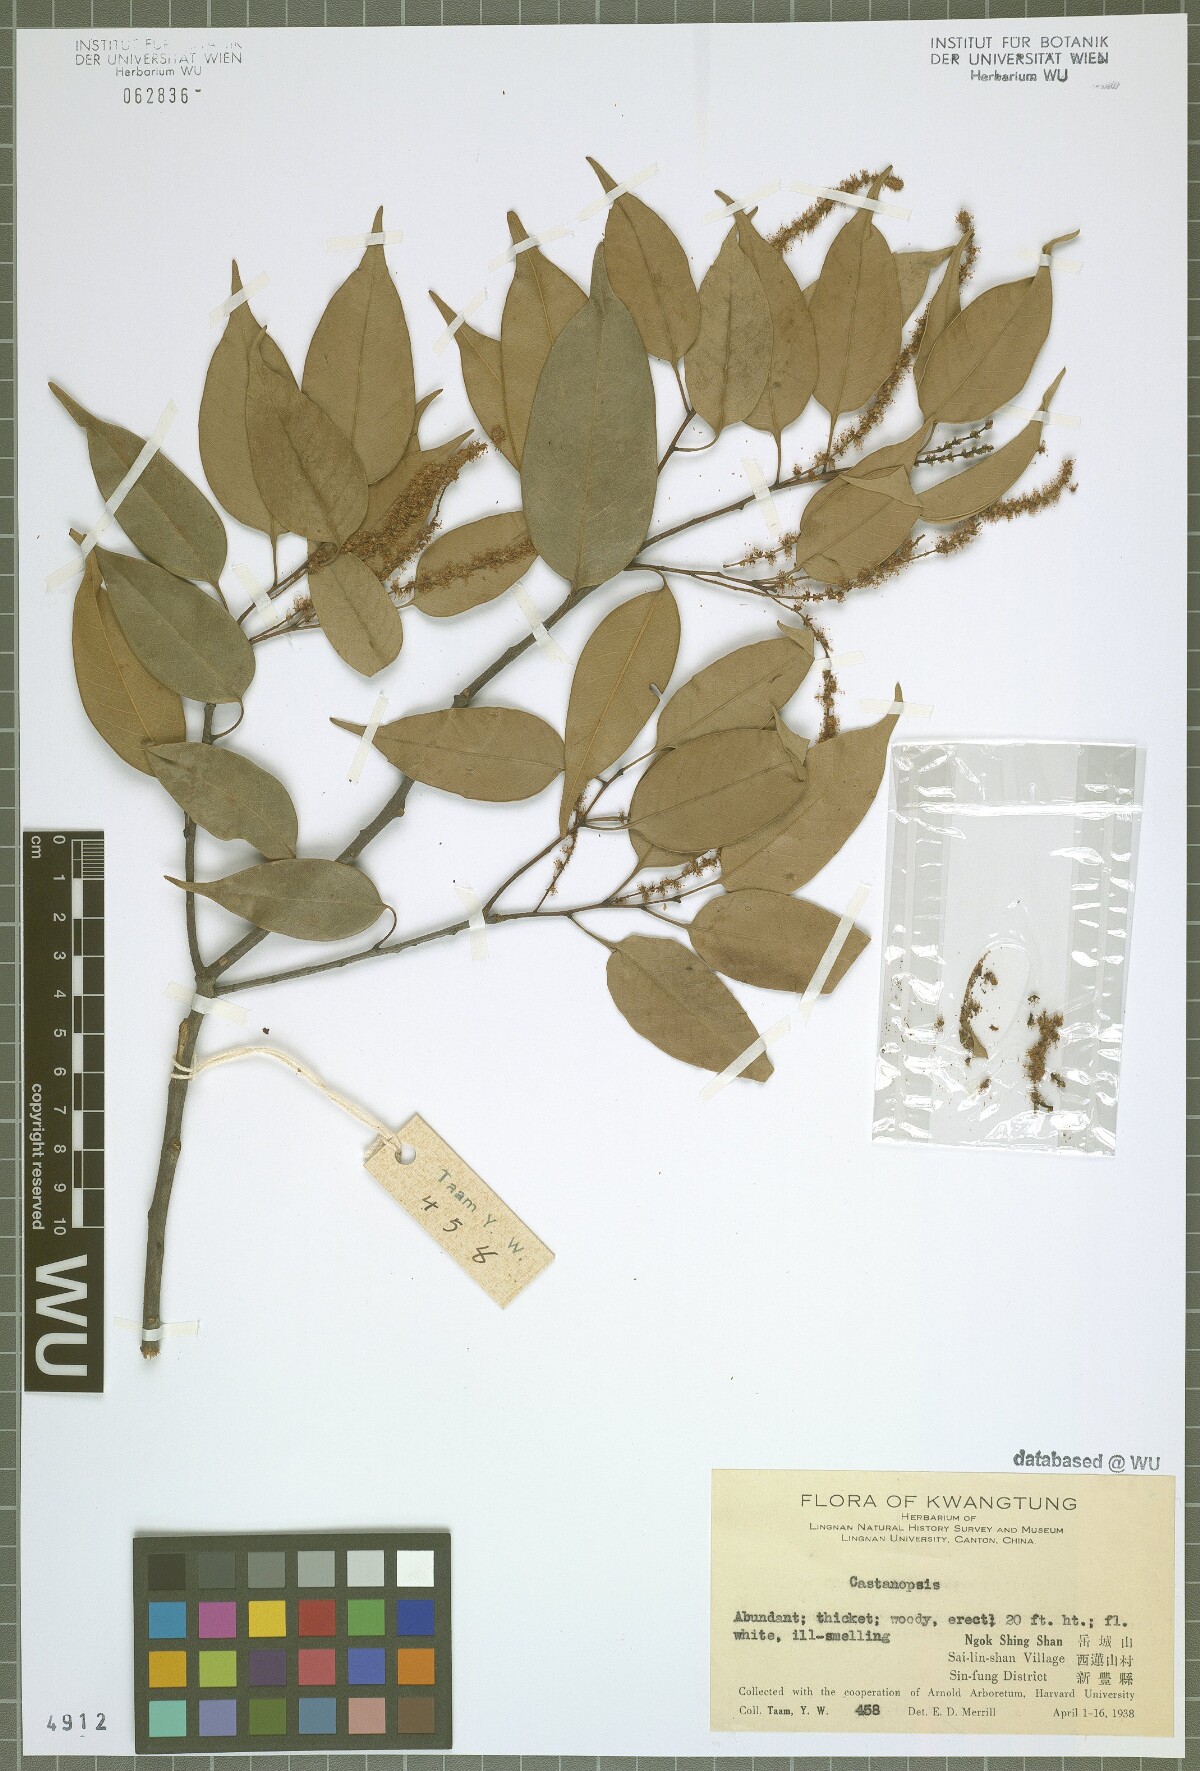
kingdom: Plantae
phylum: Tracheophyta
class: Magnoliopsida
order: Fagales
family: Fagaceae
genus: Castanopsis
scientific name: Castanopsis
